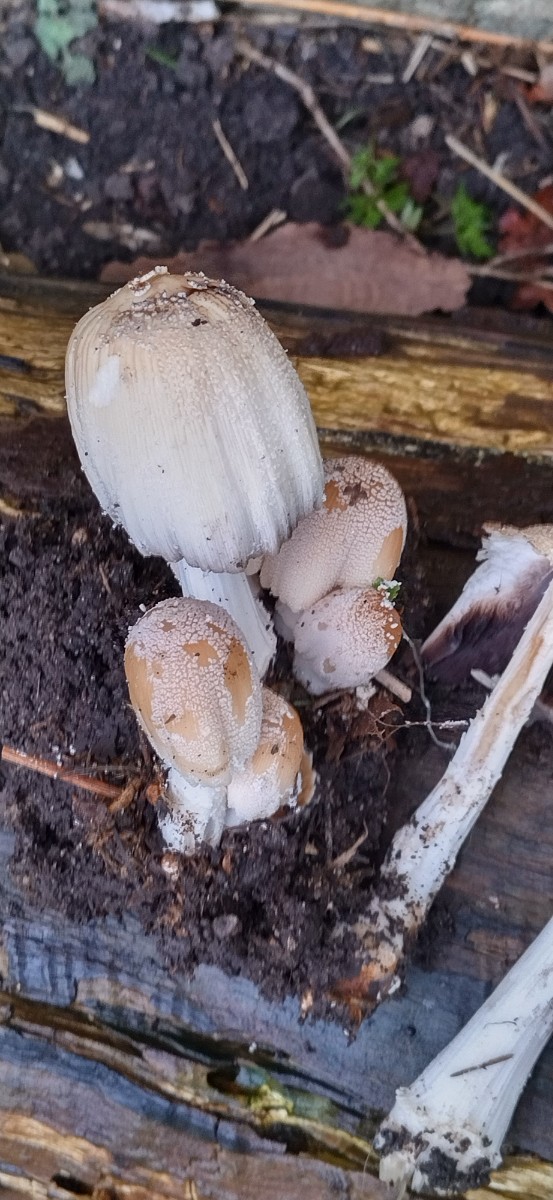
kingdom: Fungi
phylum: Basidiomycota
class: Agaricomycetes
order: Agaricales
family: Psathyrellaceae
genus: Coprinellus
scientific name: Coprinellus
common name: blækhat
